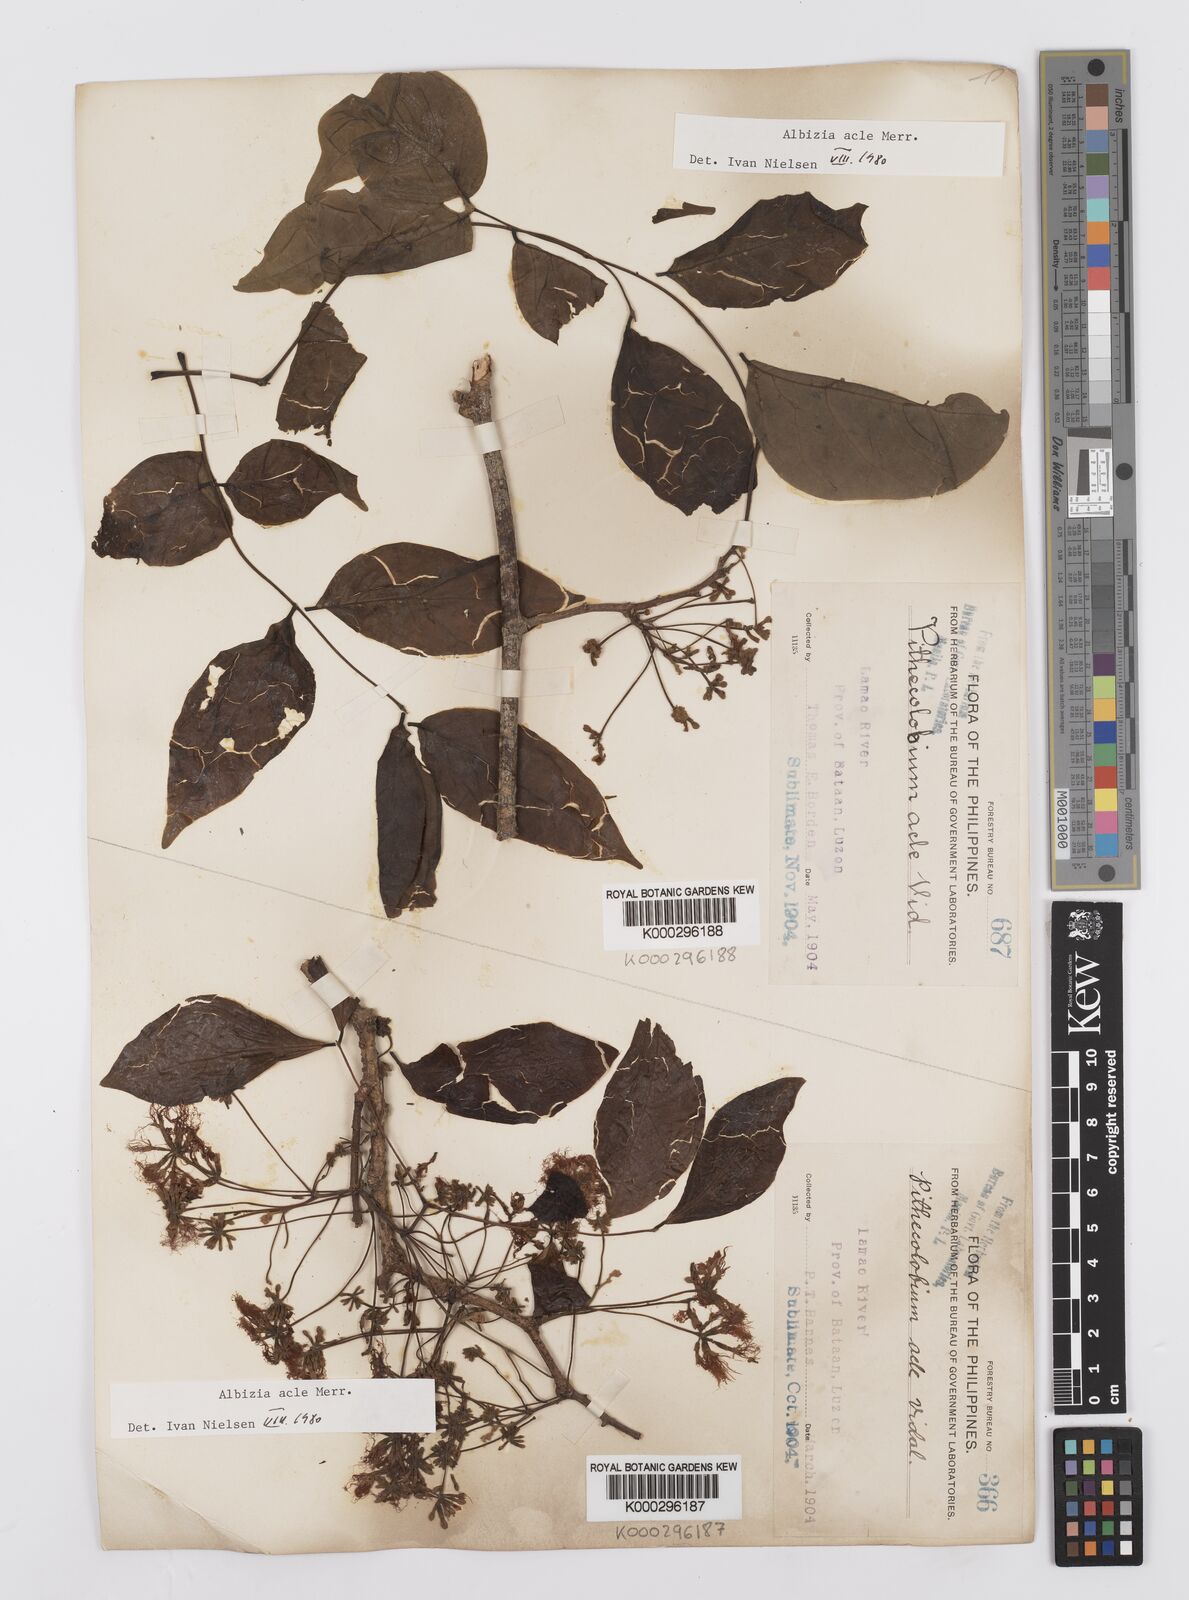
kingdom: Plantae
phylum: Tracheophyta
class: Magnoliopsida
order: Fabales
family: Fabaceae
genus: Albizia
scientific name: Albizia acle
